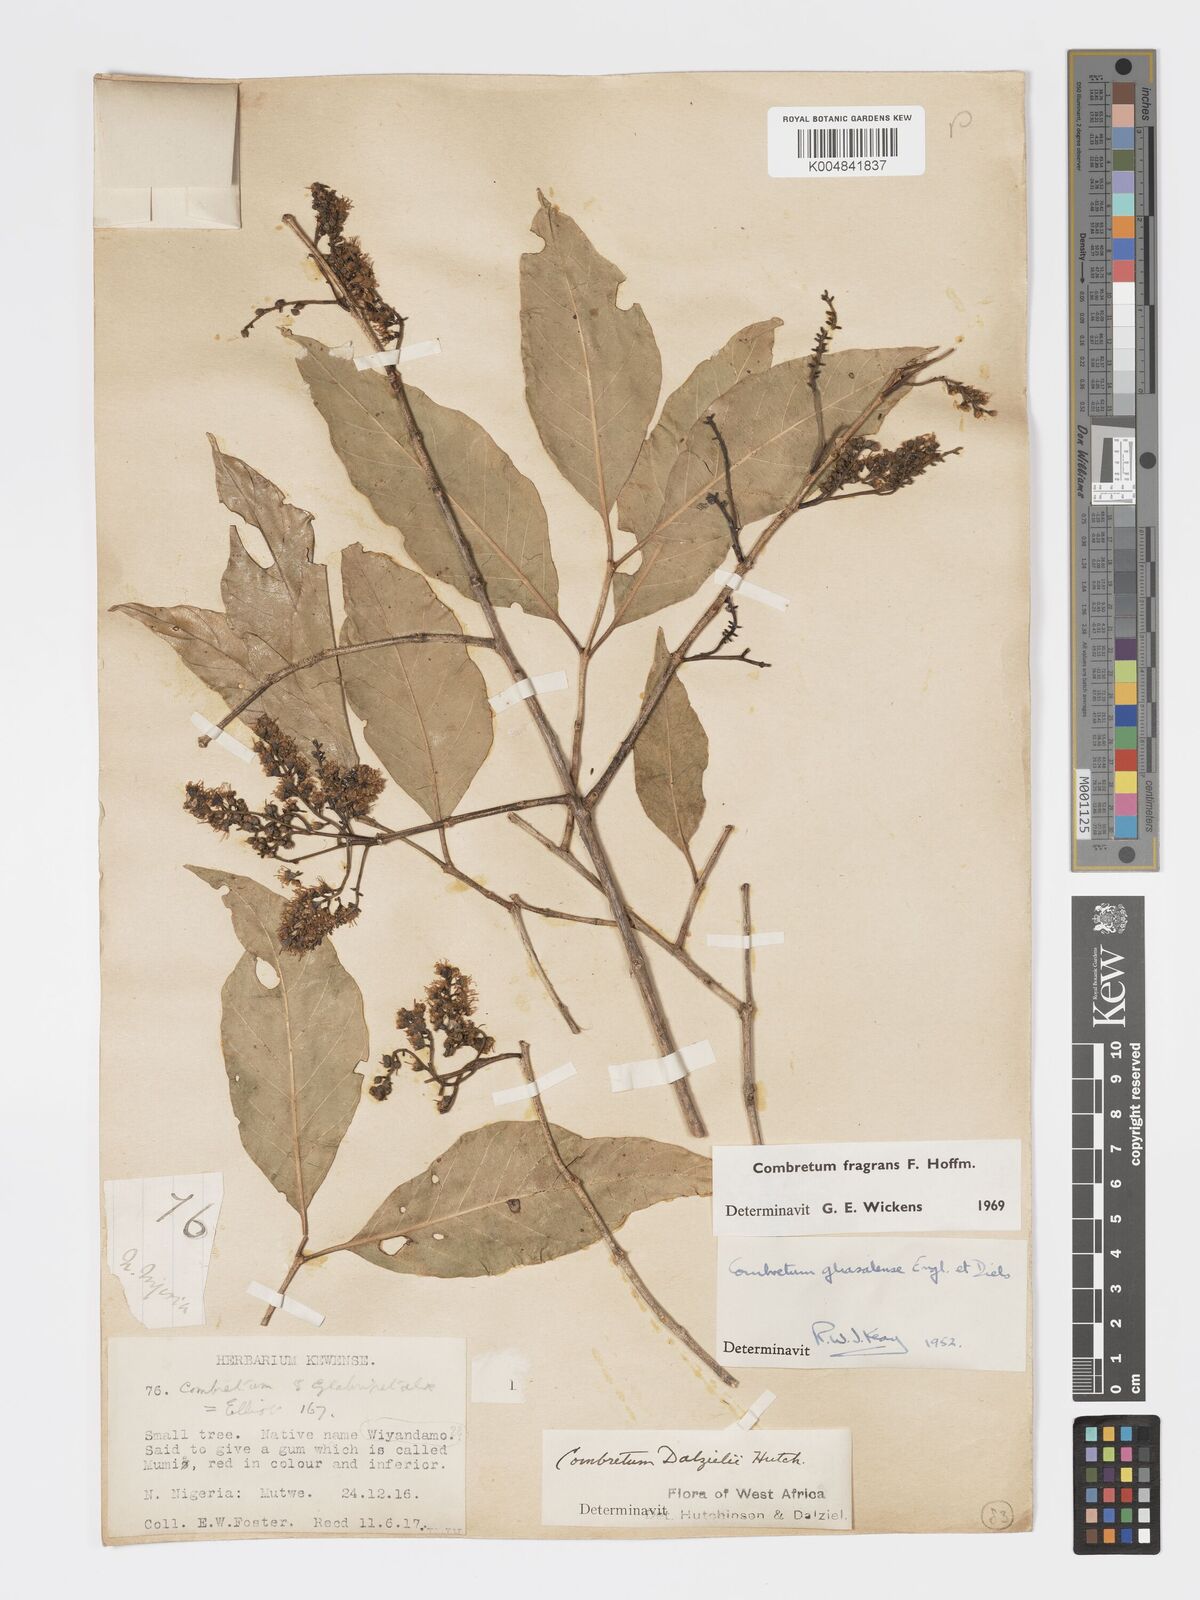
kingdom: Plantae
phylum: Tracheophyta
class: Magnoliopsida
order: Myrtales
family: Combretaceae
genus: Combretum
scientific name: Combretum adenogonium
